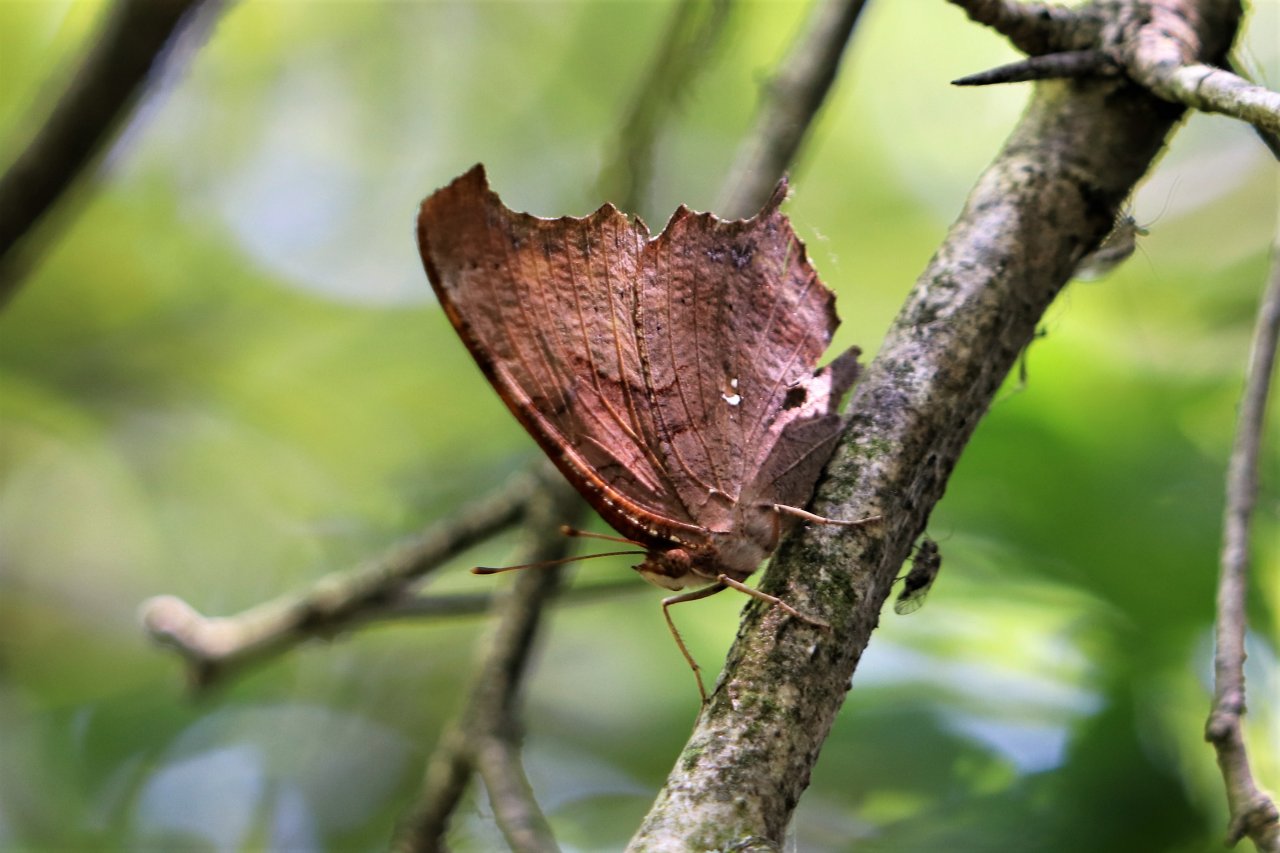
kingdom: Animalia
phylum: Arthropoda
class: Insecta
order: Lepidoptera
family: Nymphalidae
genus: Polygonia
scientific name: Polygonia interrogationis
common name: Question Mark
